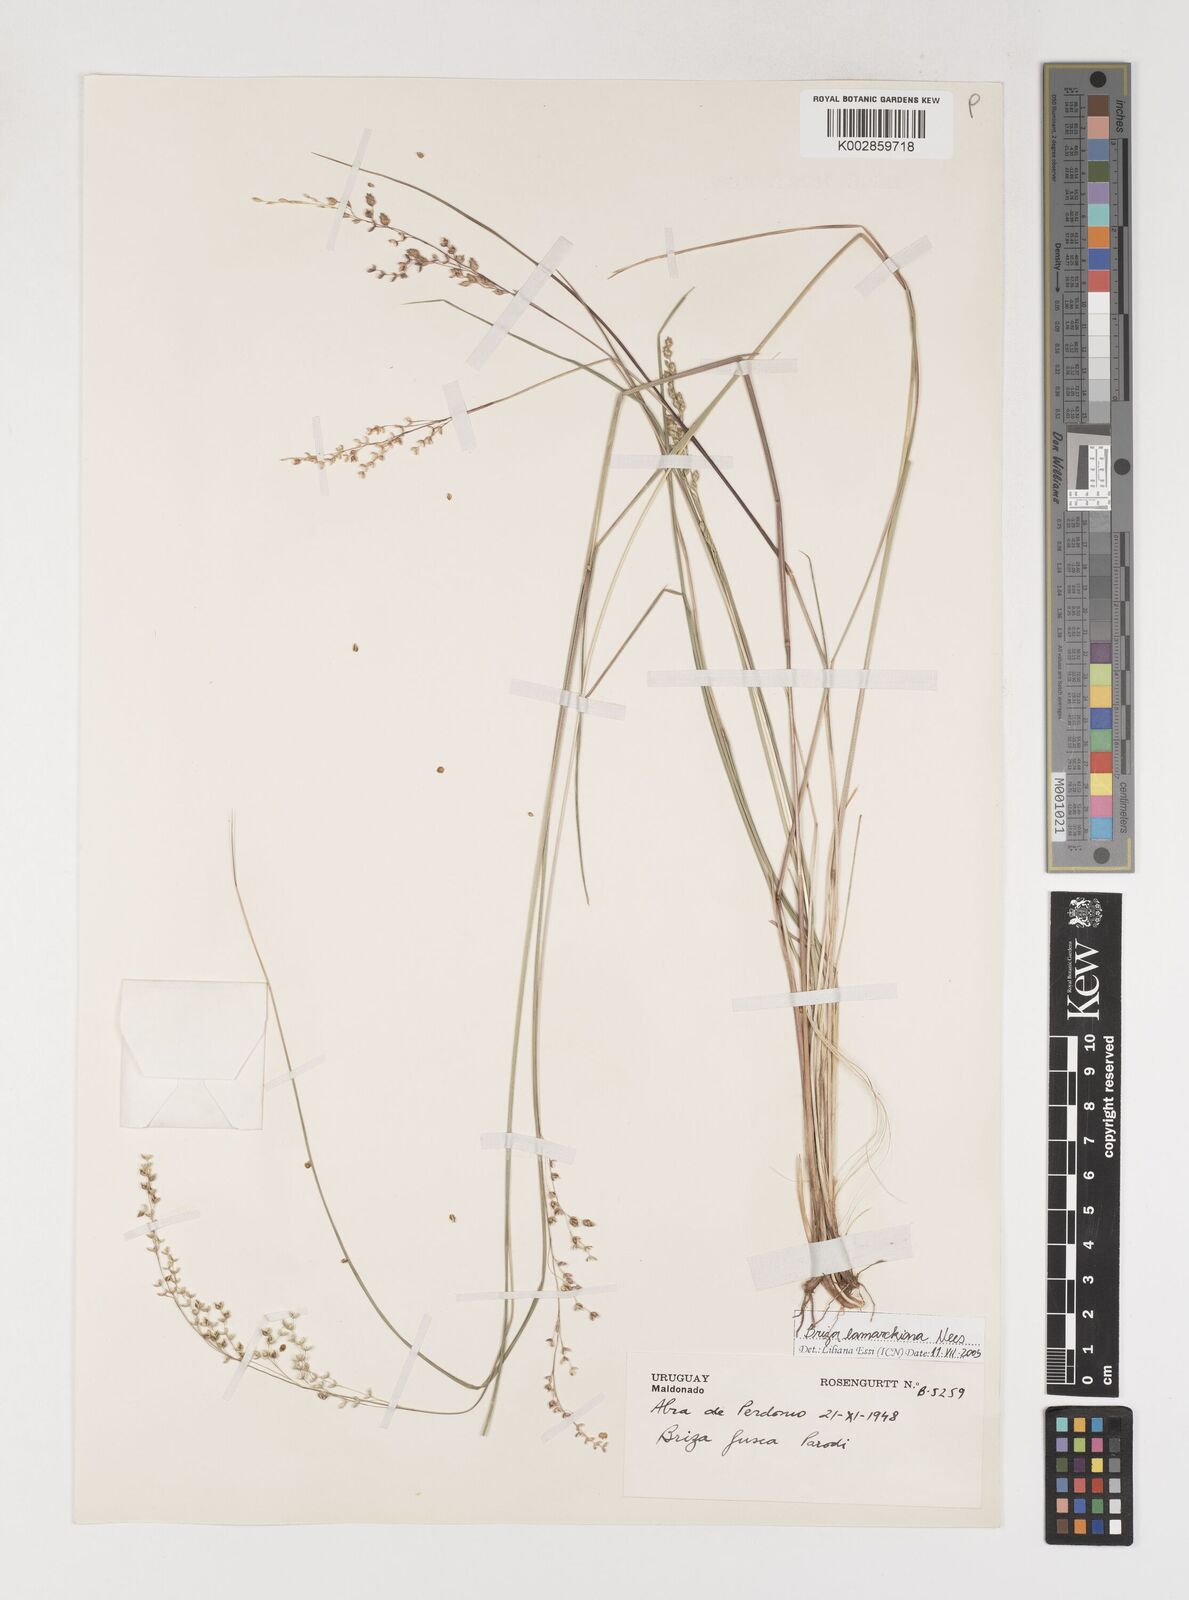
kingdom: Plantae
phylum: Tracheophyta
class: Liliopsida
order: Poales
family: Poaceae
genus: Chascolytrum
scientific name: Chascolytrum lamarckianum
